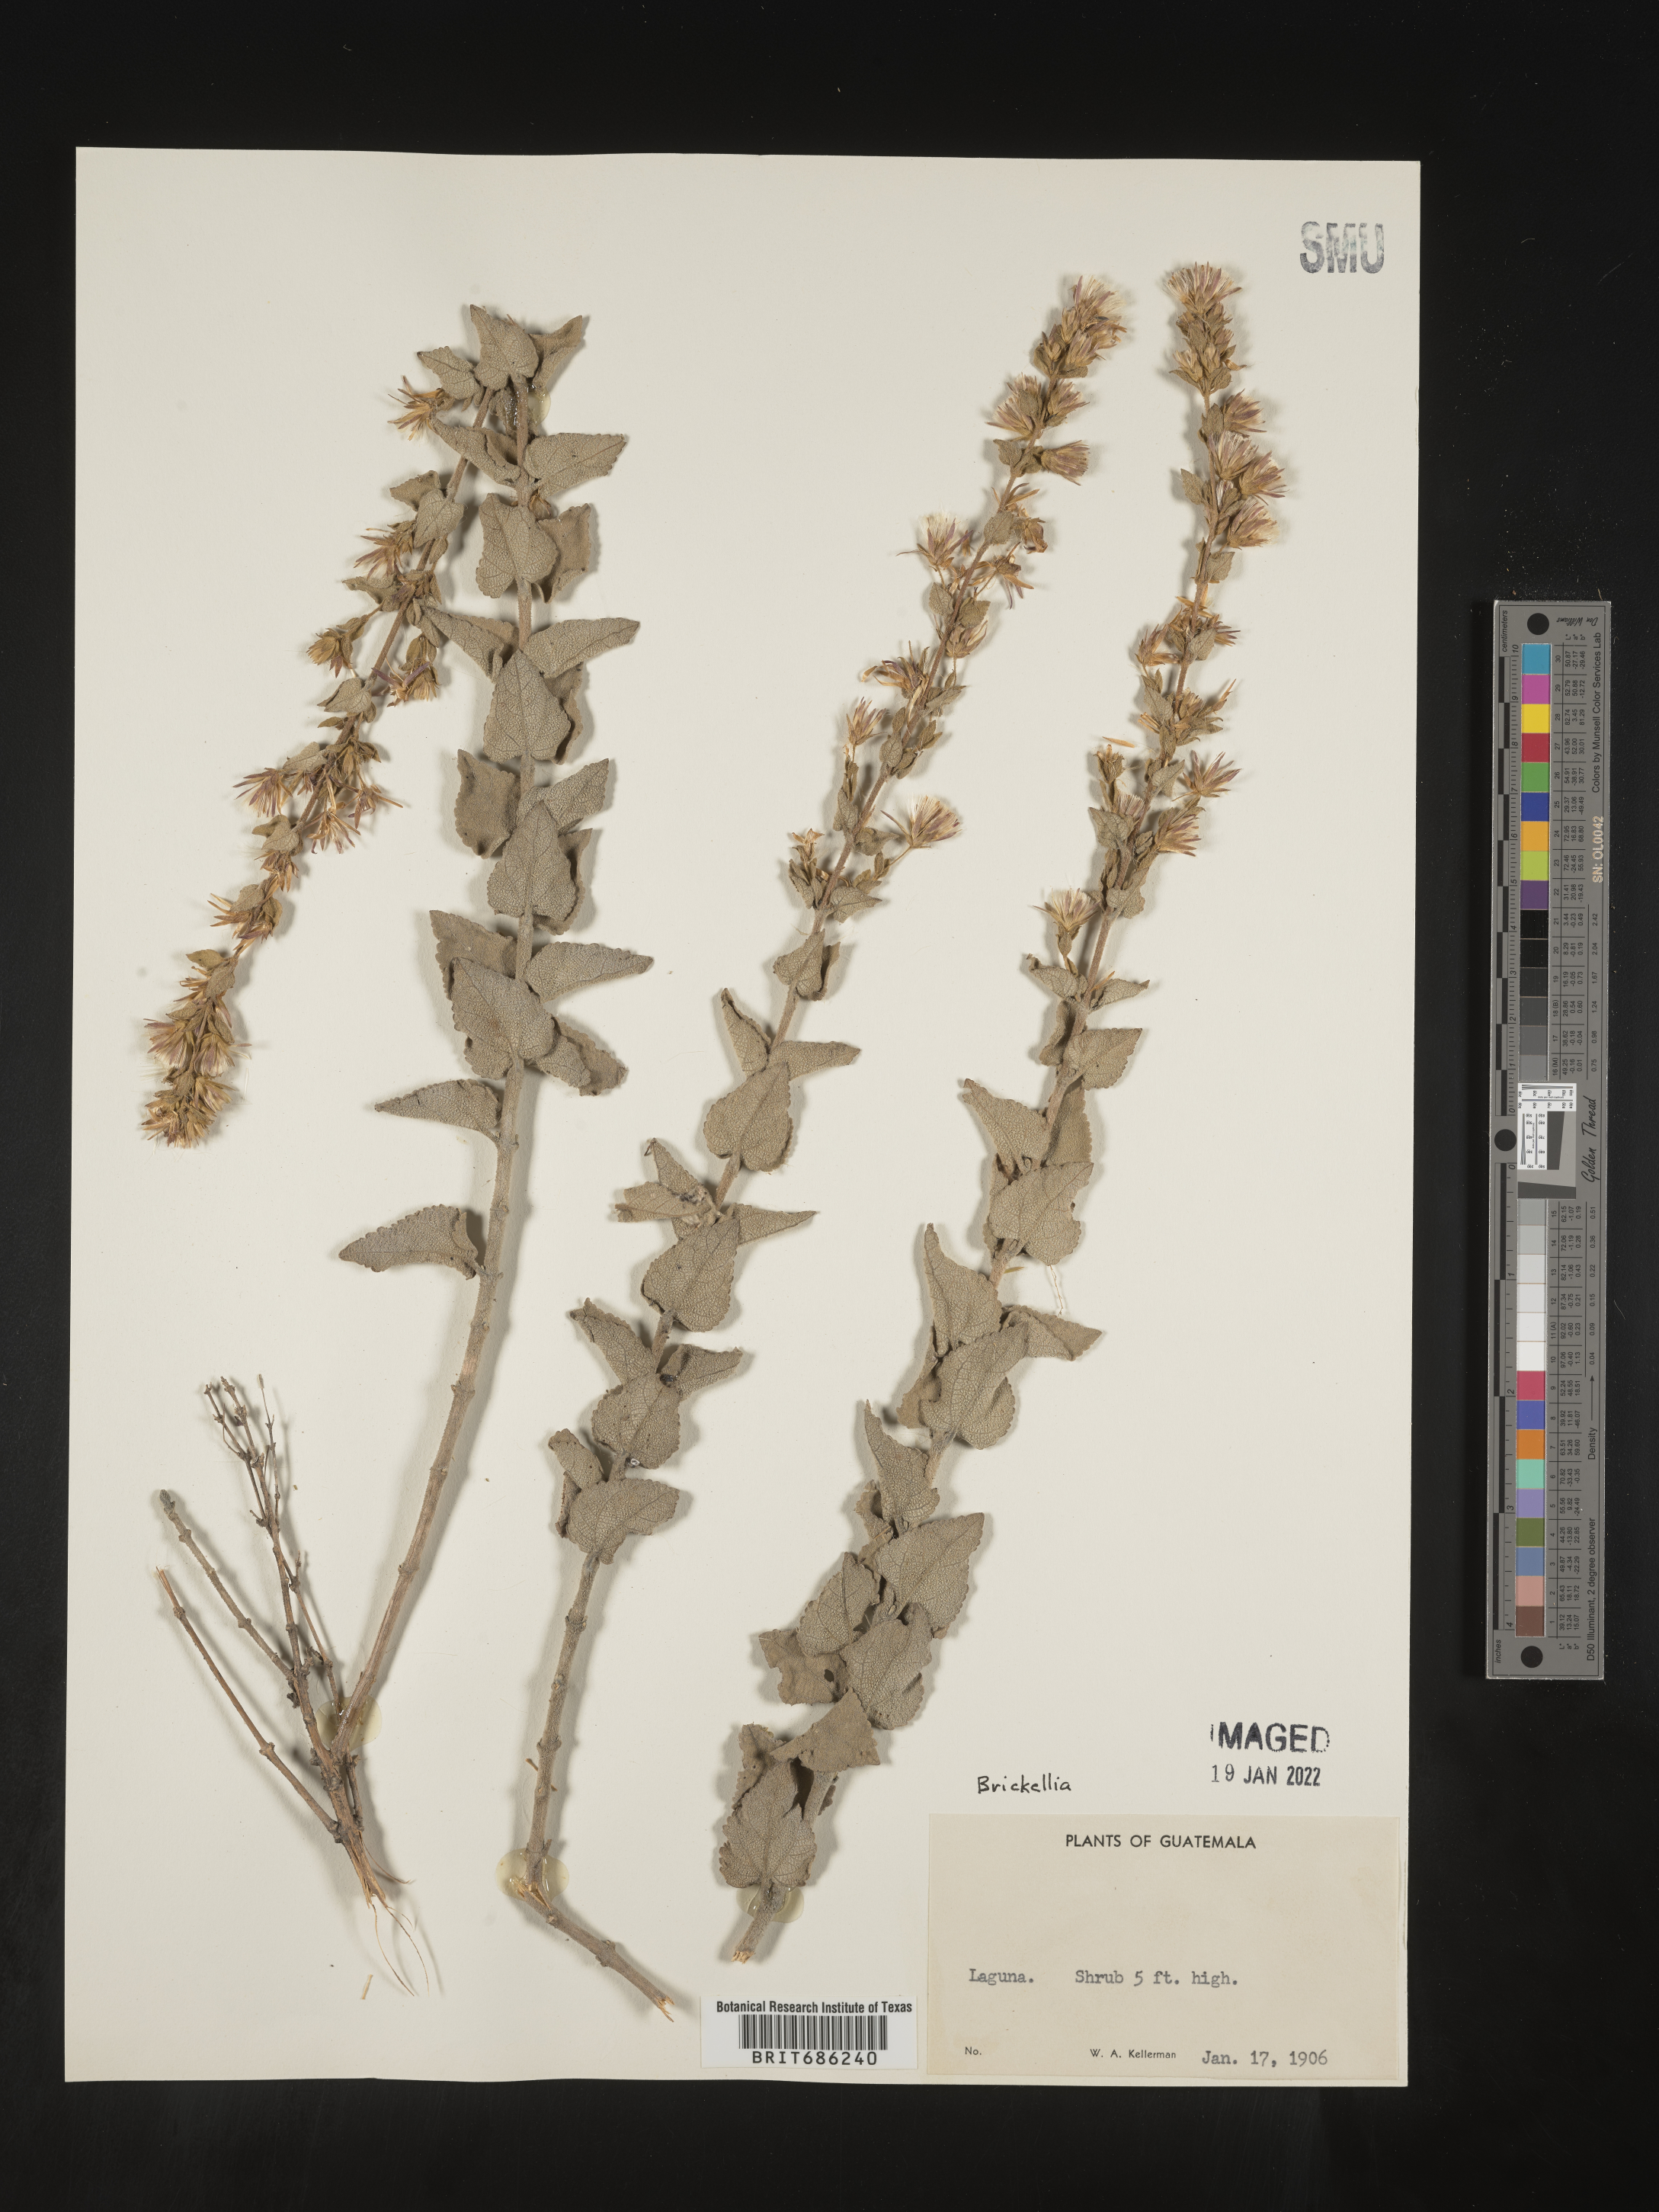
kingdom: Plantae
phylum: Tracheophyta
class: Magnoliopsida
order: Asterales
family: Asteraceae
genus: Brickellia
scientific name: Brickellia
